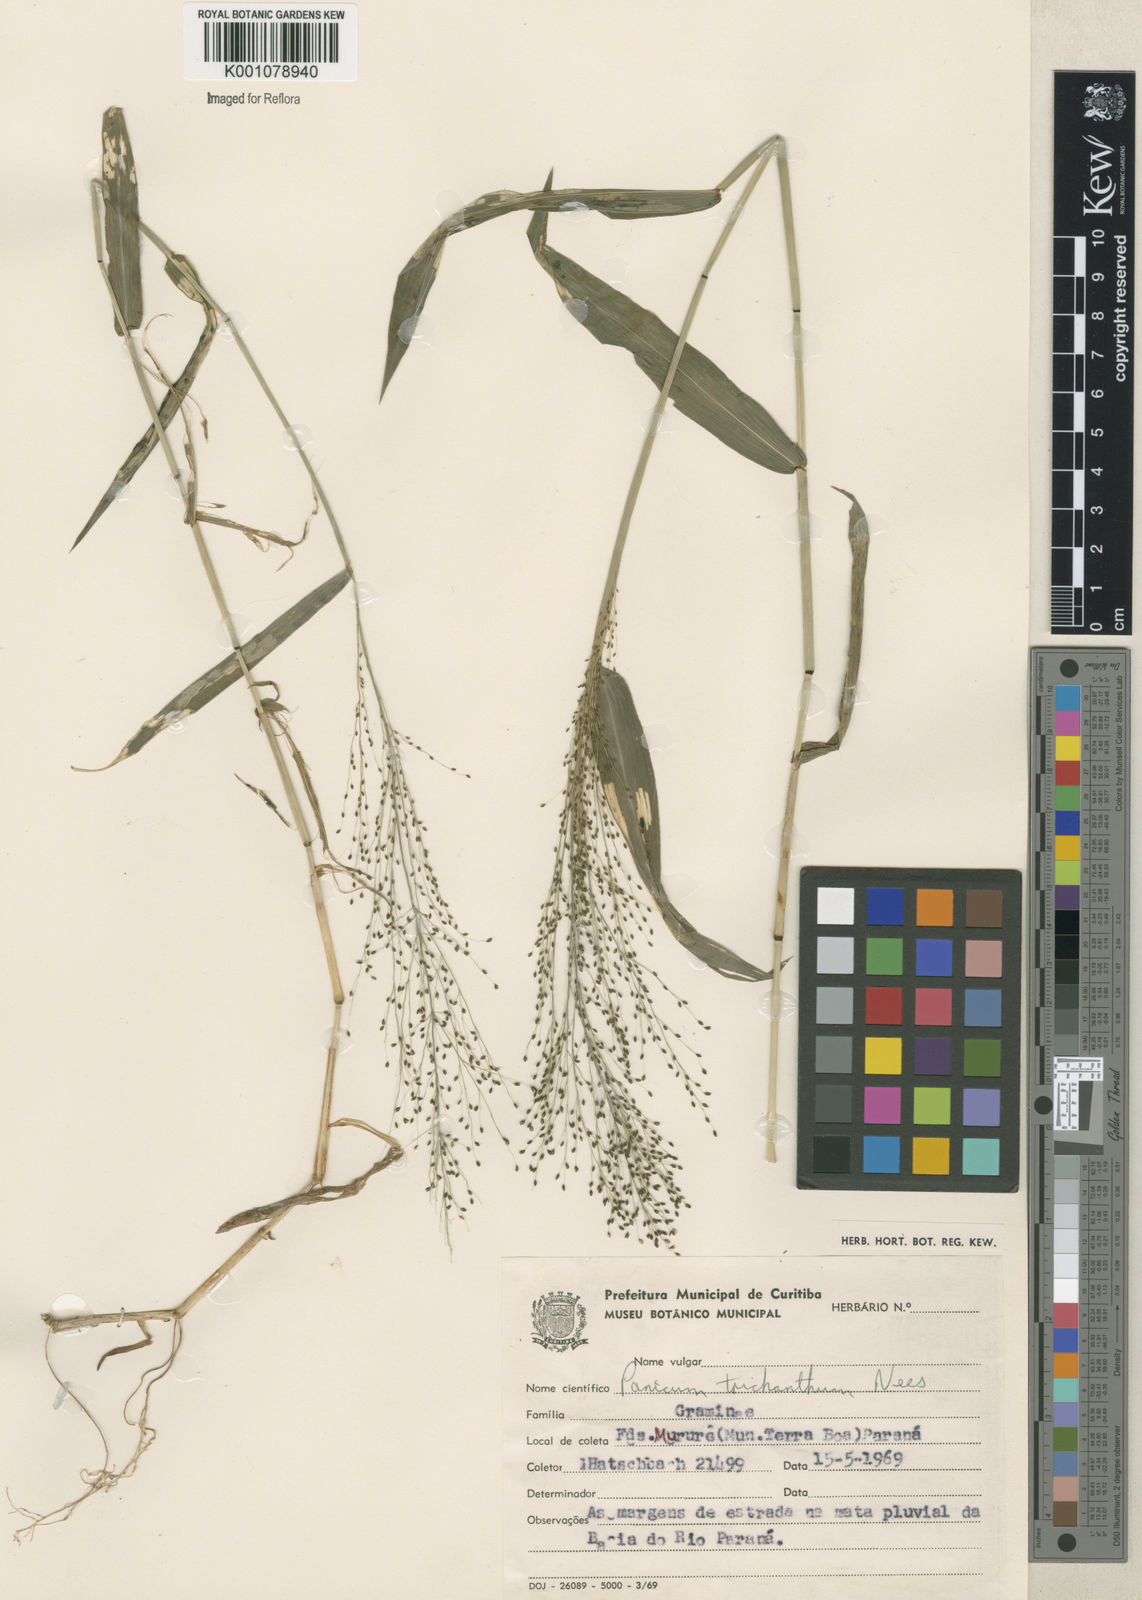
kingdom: Plantae
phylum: Tracheophyta
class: Liliopsida
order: Poales
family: Poaceae
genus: Panicum
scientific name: Panicum
